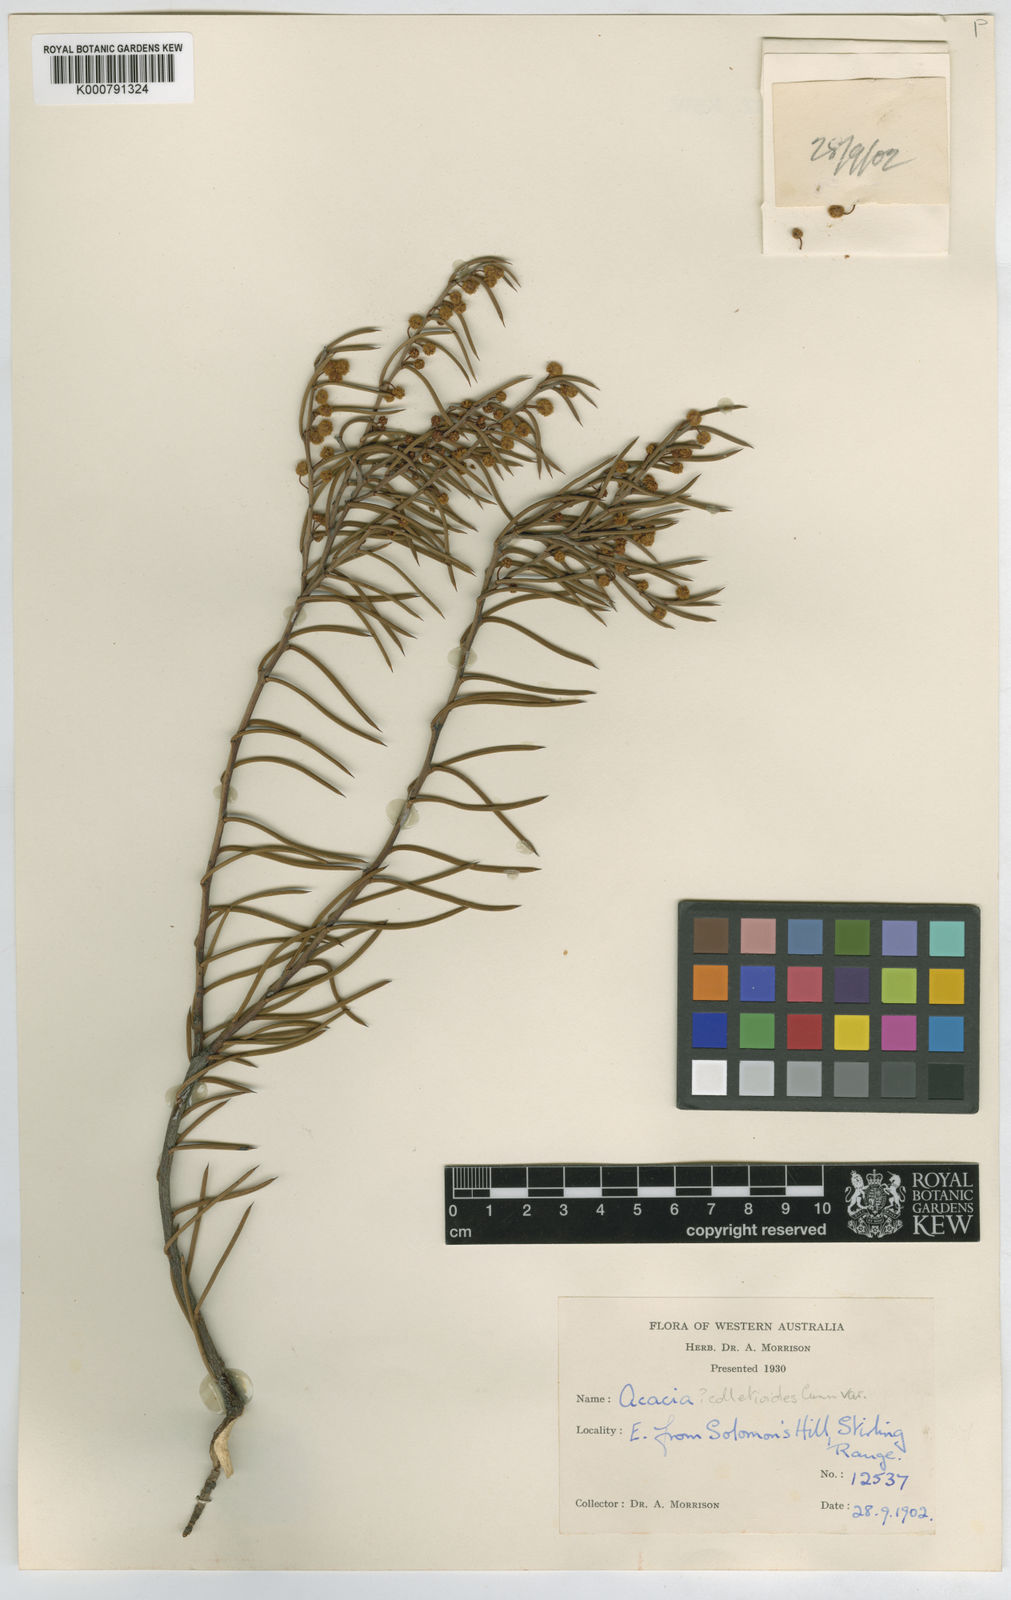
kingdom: Plantae
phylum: Tracheophyta
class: Magnoliopsida
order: Fabales
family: Fabaceae
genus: Acacia
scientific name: Acacia acellerata
